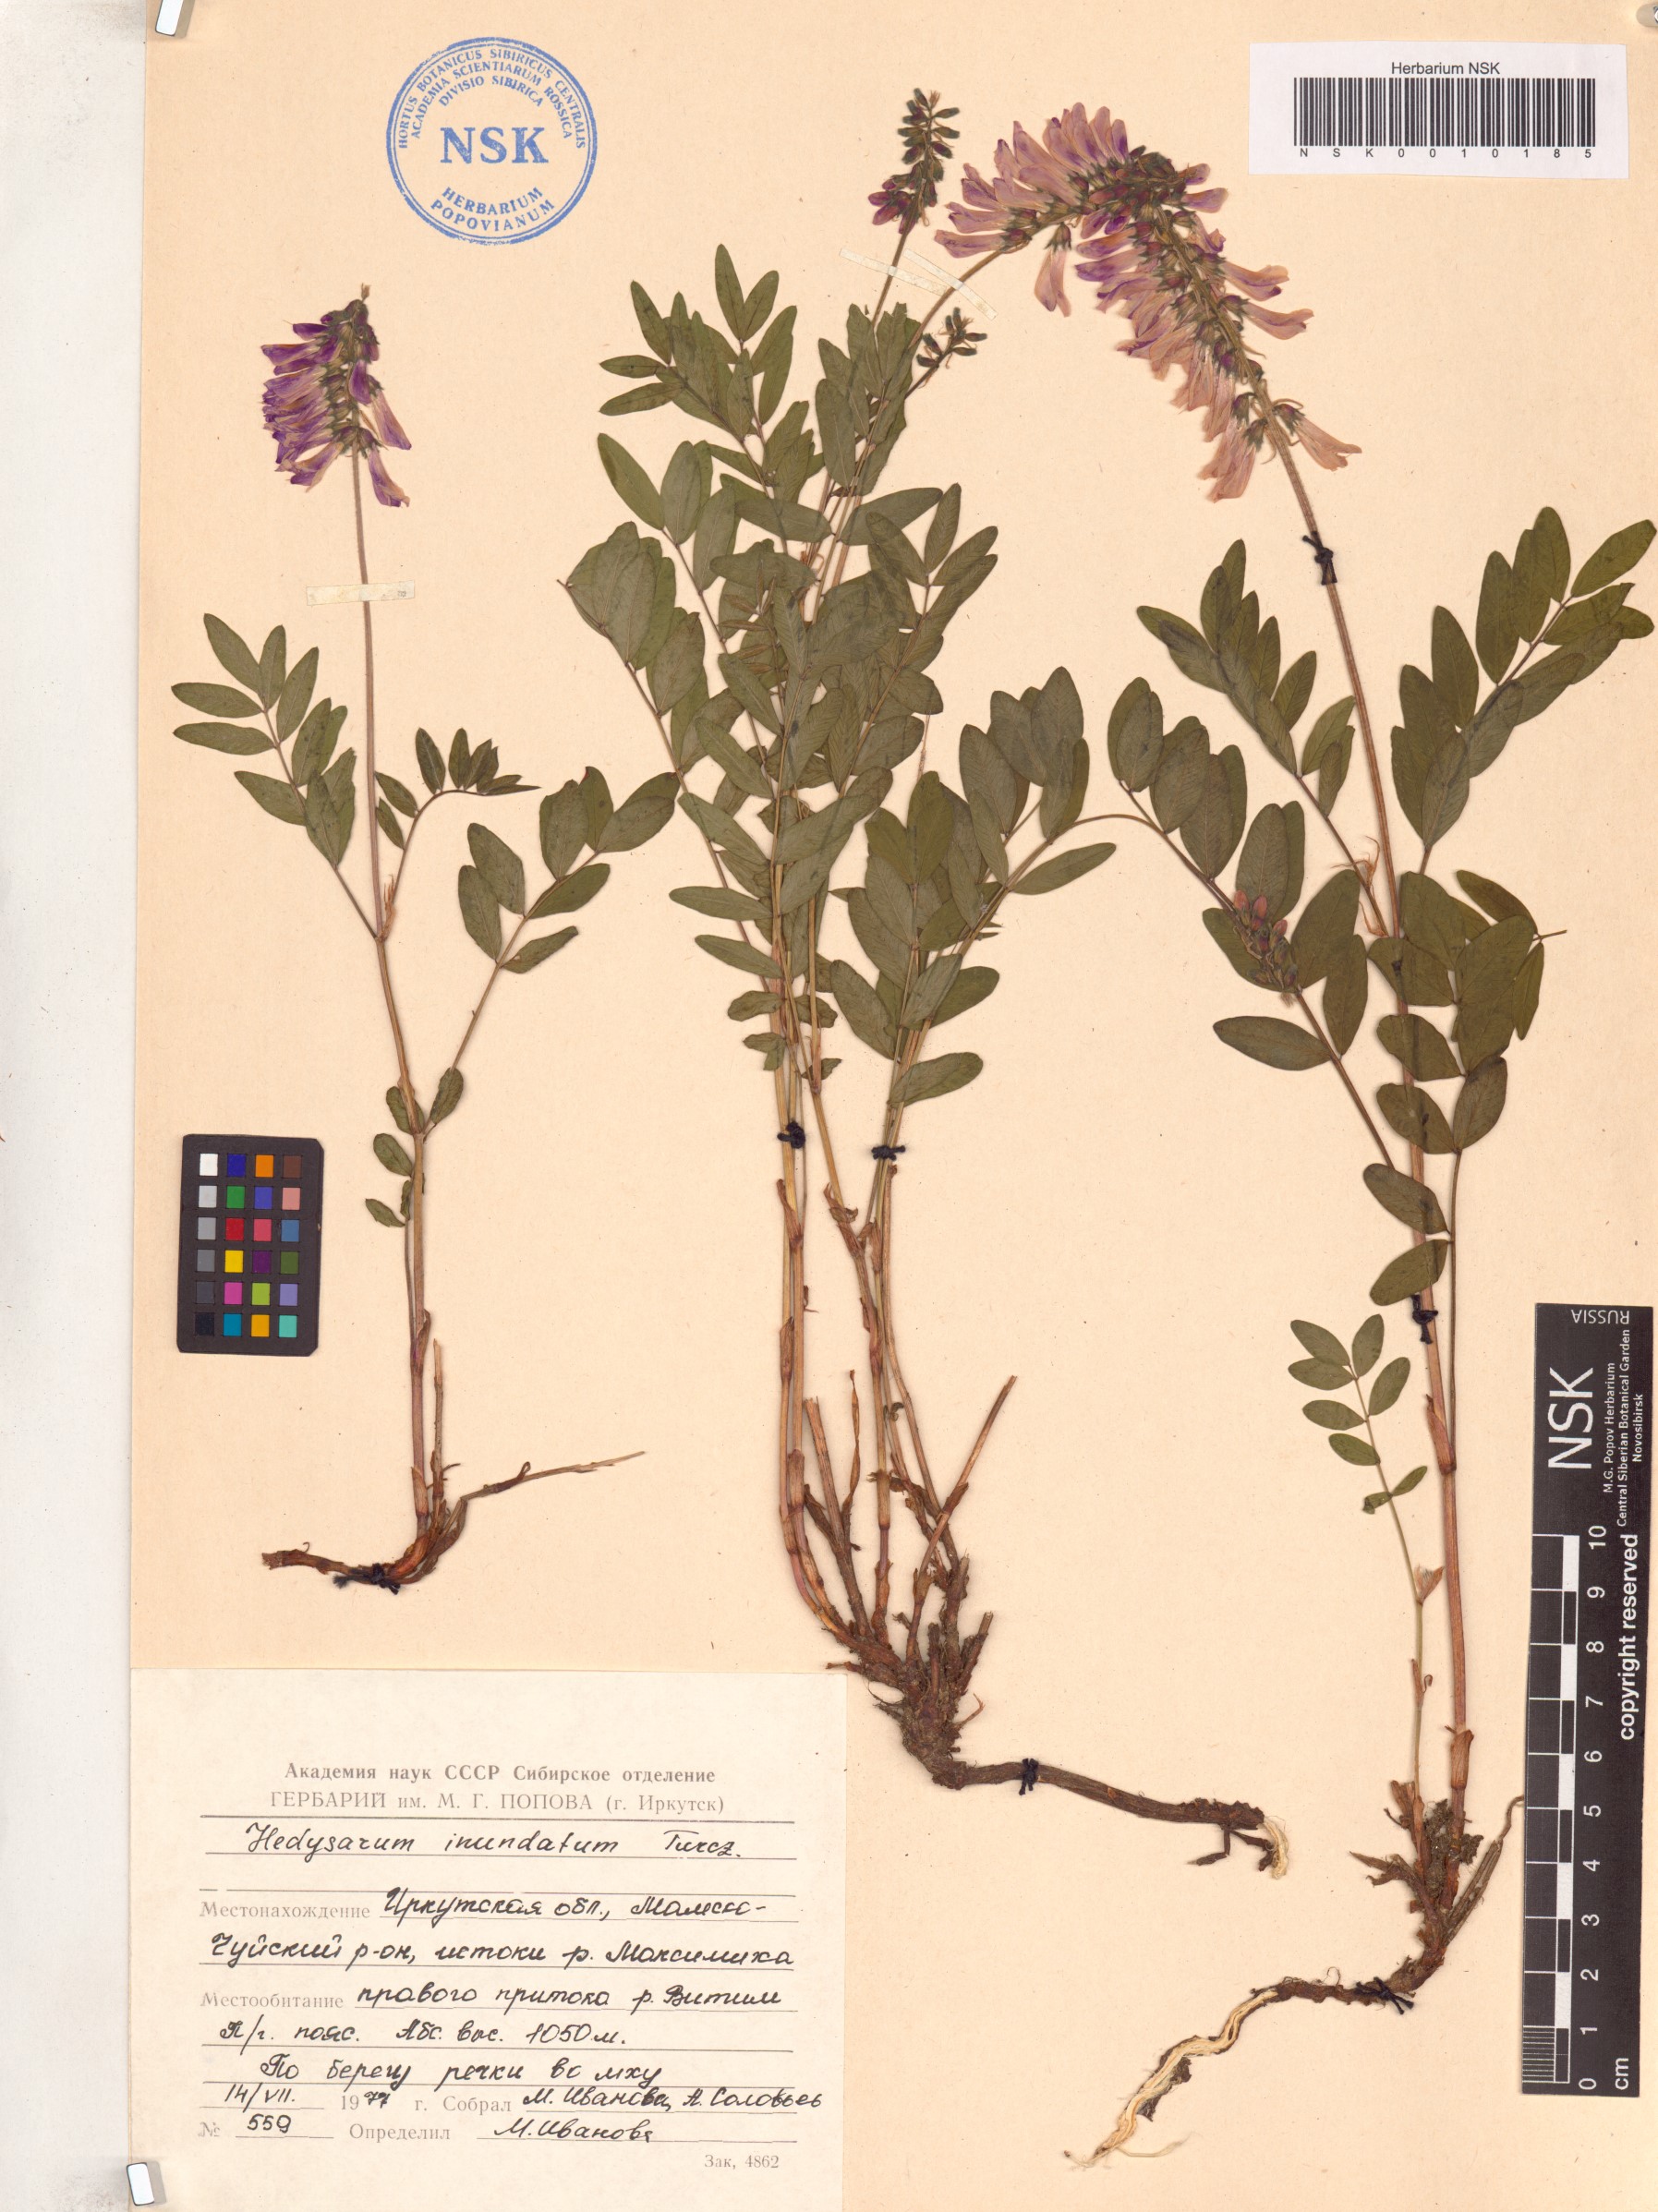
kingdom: Plantae
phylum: Tracheophyta
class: Magnoliopsida
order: Fabales
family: Fabaceae
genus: Hedysarum
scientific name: Hedysarum inundatum
